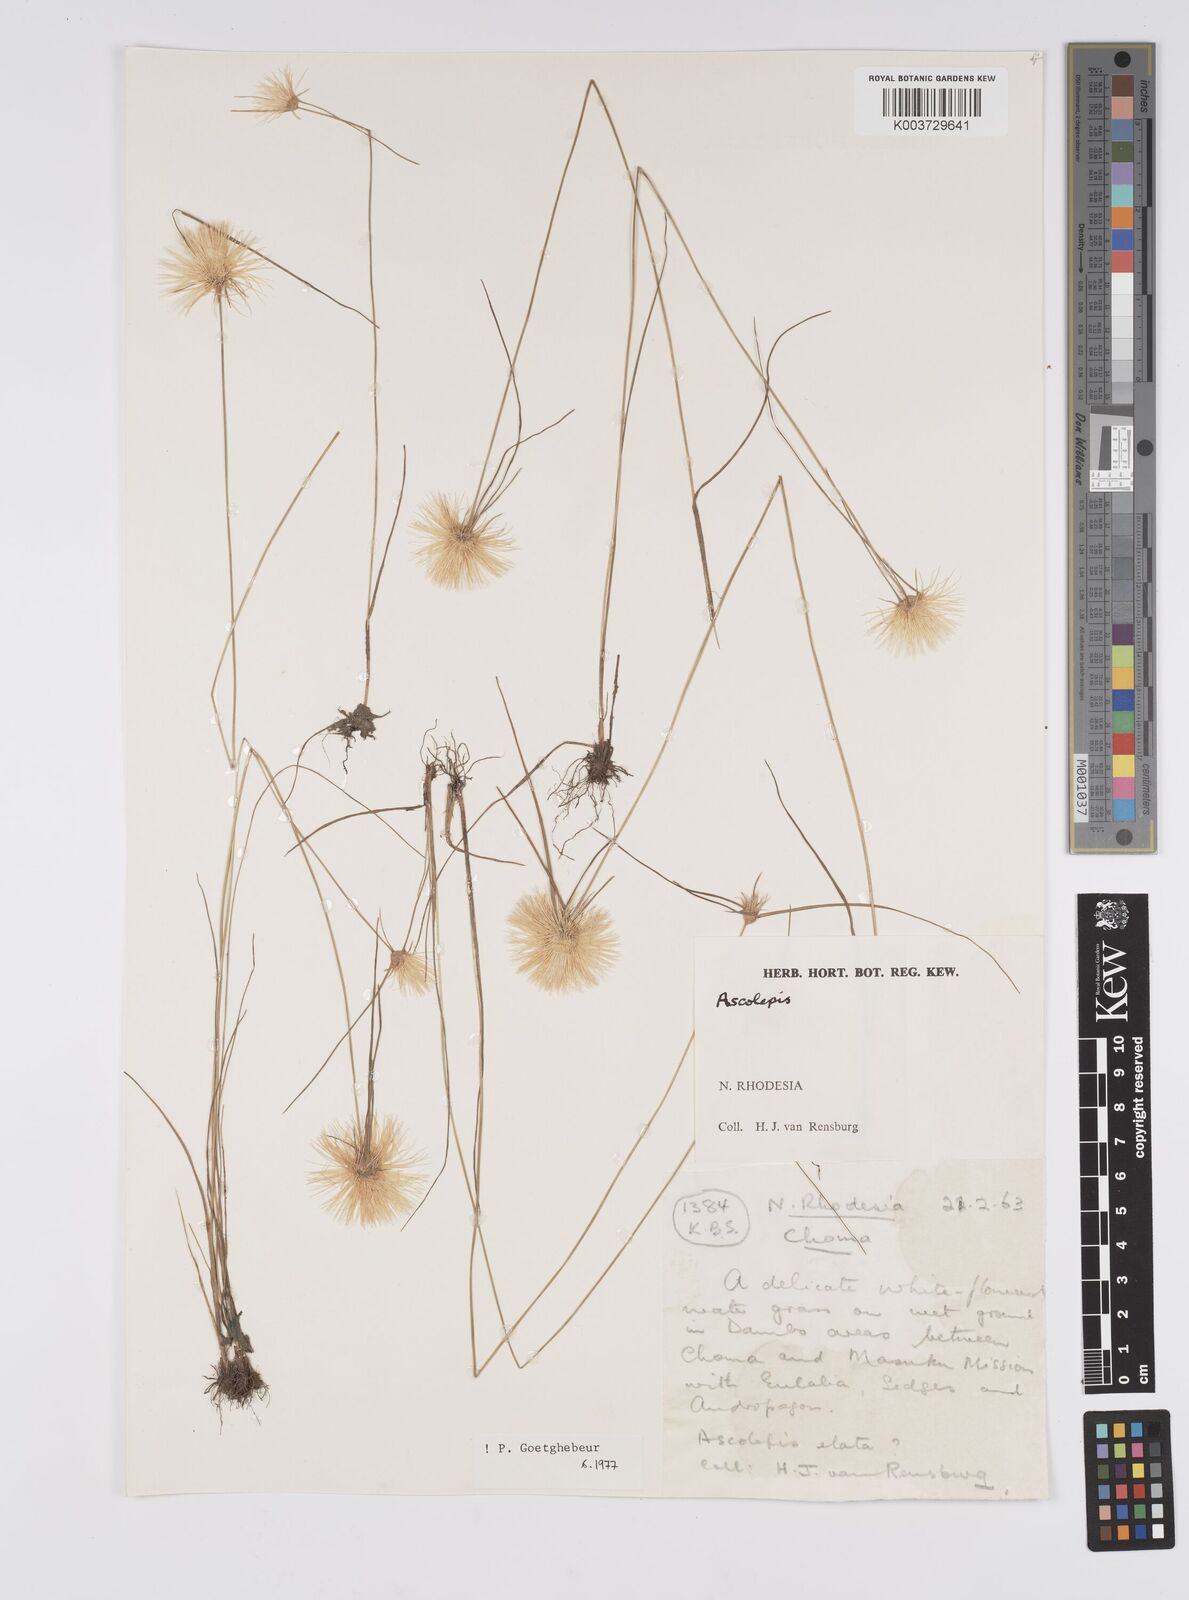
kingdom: Plantae
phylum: Tracheophyta
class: Liliopsida
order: Poales
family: Cyperaceae
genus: Cyperus
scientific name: Cyperus
